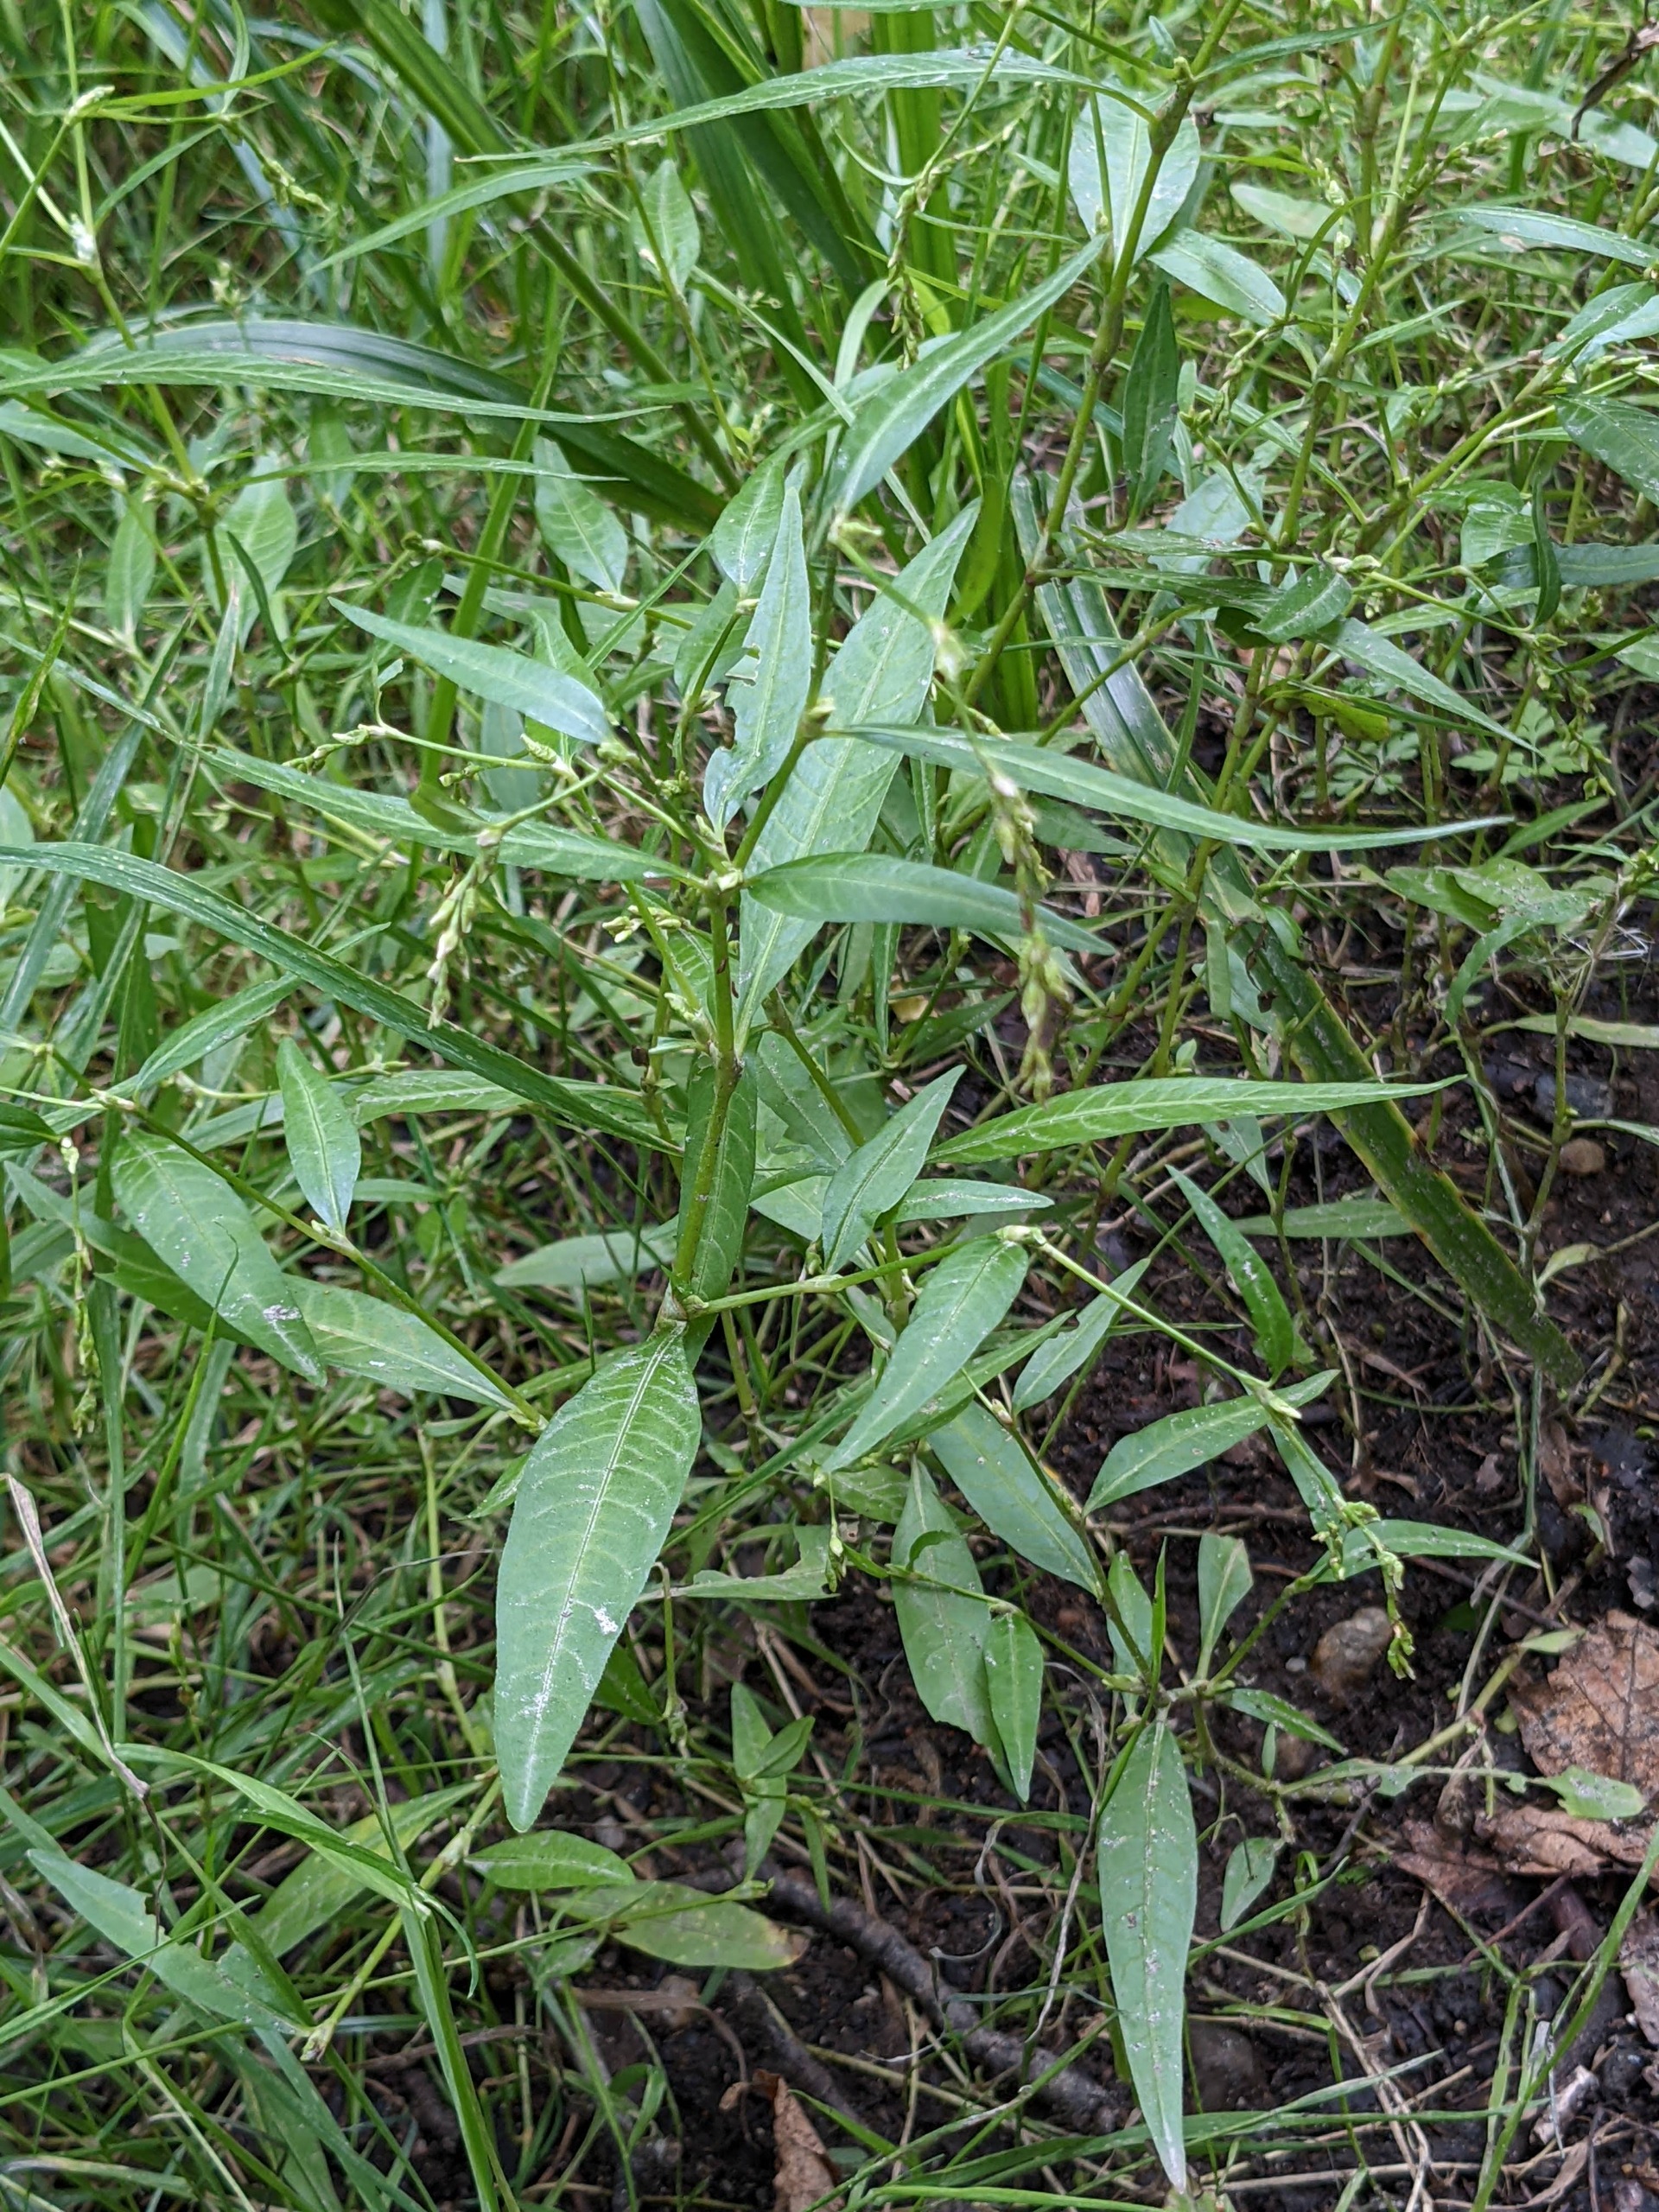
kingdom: Plantae
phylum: Tracheophyta
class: Magnoliopsida
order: Caryophyllales
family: Polygonaceae
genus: Persicaria
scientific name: Persicaria hydropiper
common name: Bidende pileurt
